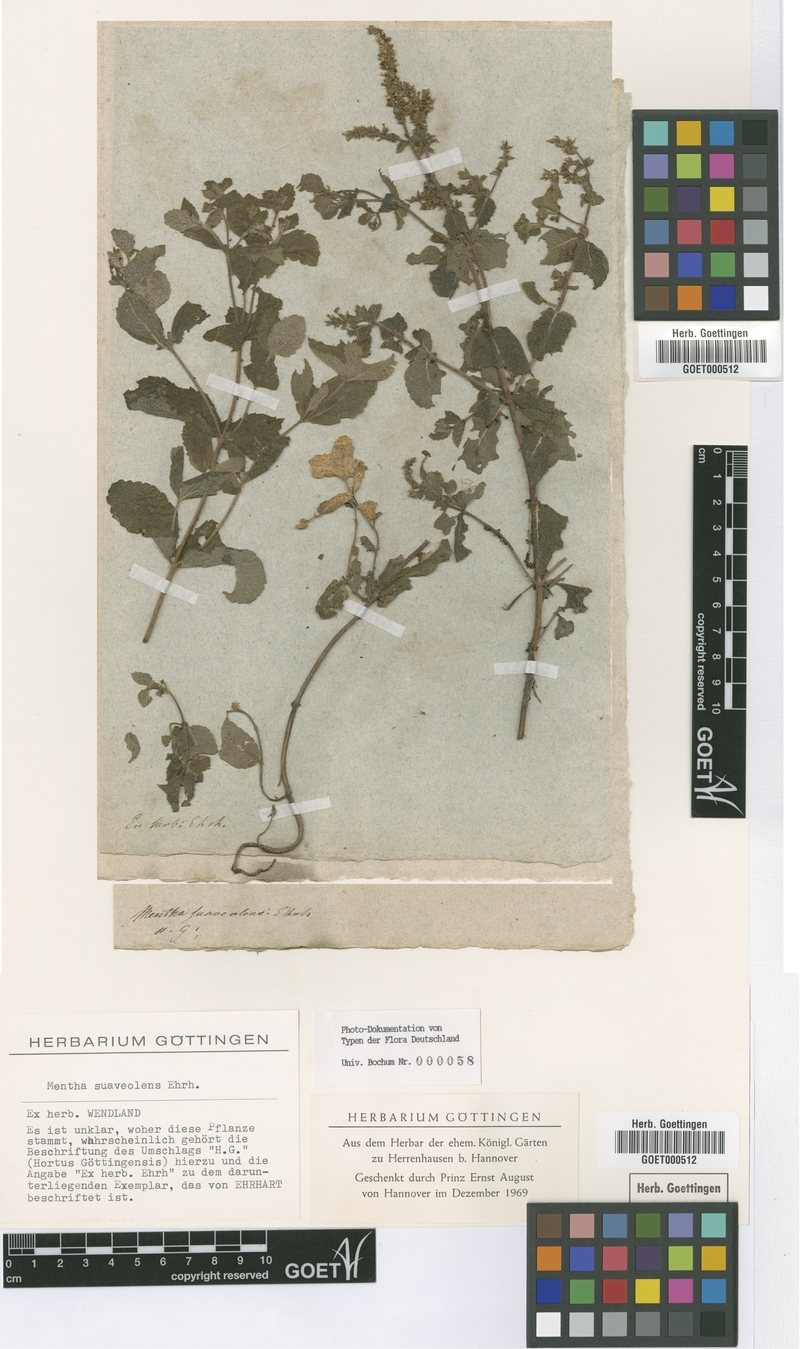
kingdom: Plantae
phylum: Tracheophyta
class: Magnoliopsida
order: Lamiales
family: Lamiaceae
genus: Mentha
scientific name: Mentha suaveolens
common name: Apple mint
